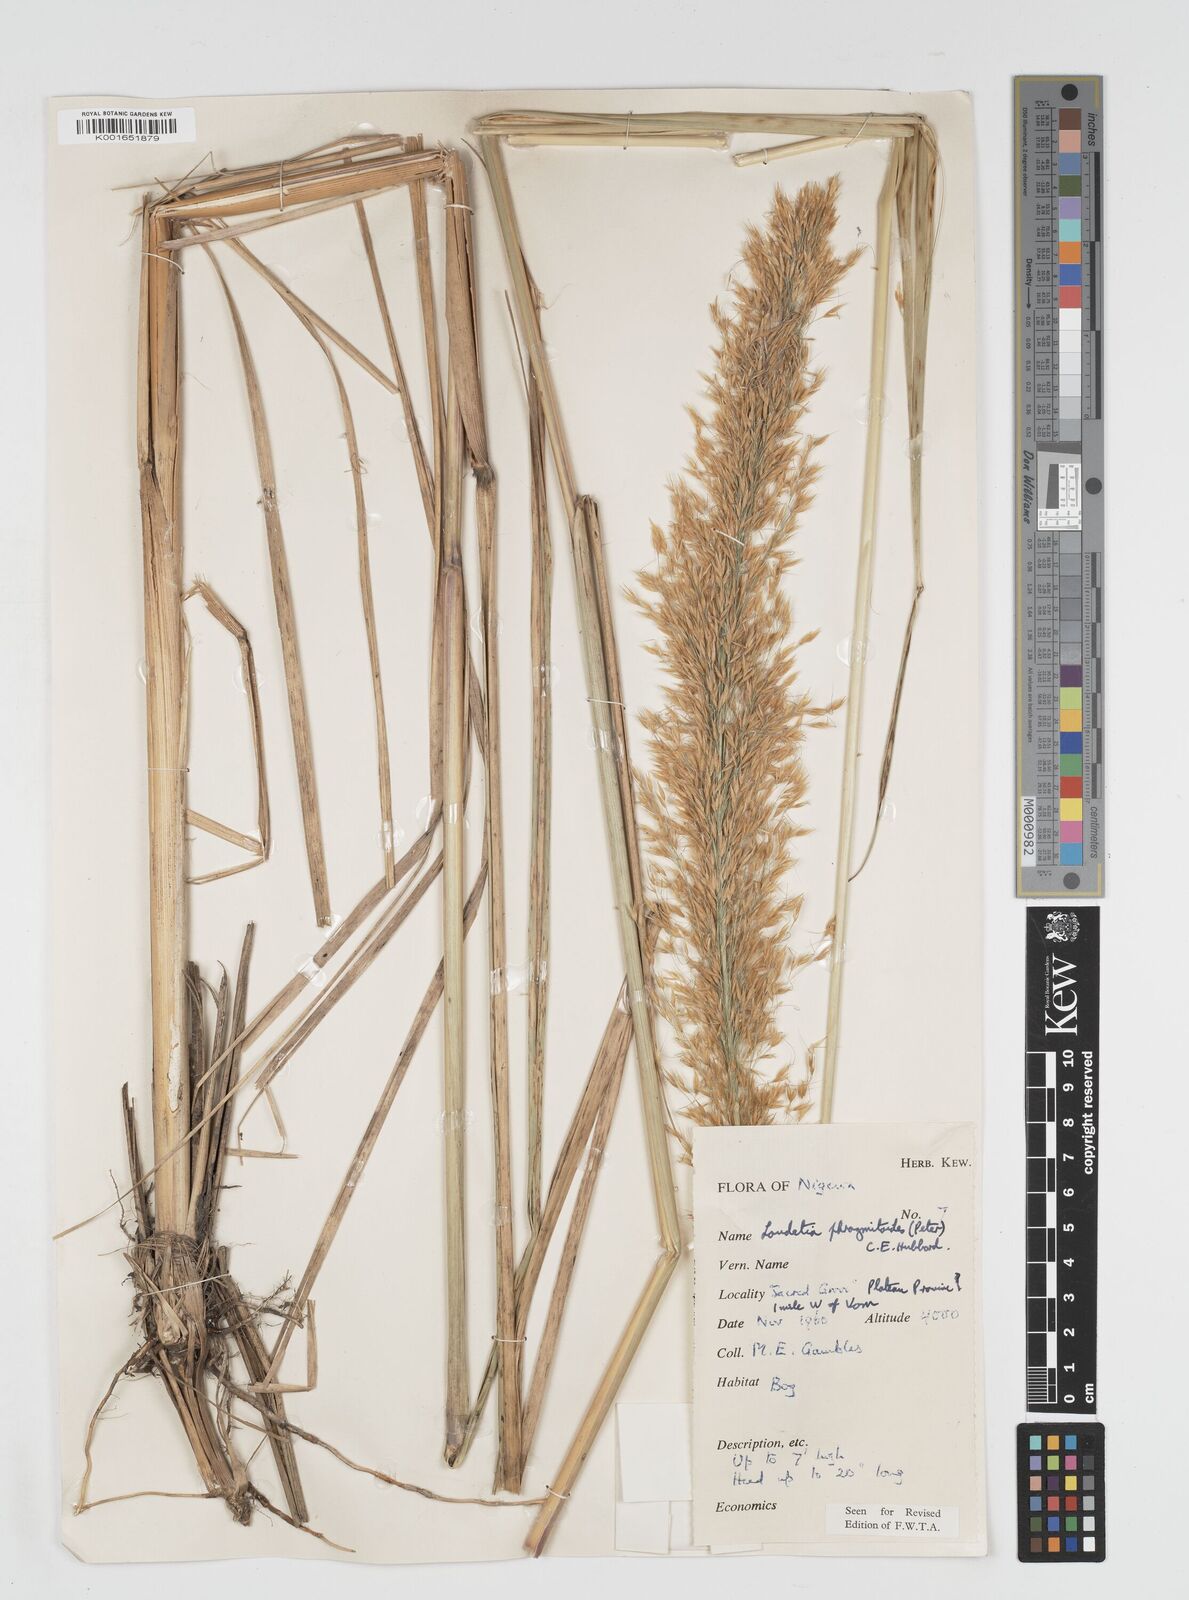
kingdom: Plantae
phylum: Tracheophyta
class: Liliopsida
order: Poales
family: Poaceae
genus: Loudetia
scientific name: Loudetia phragmitoides
